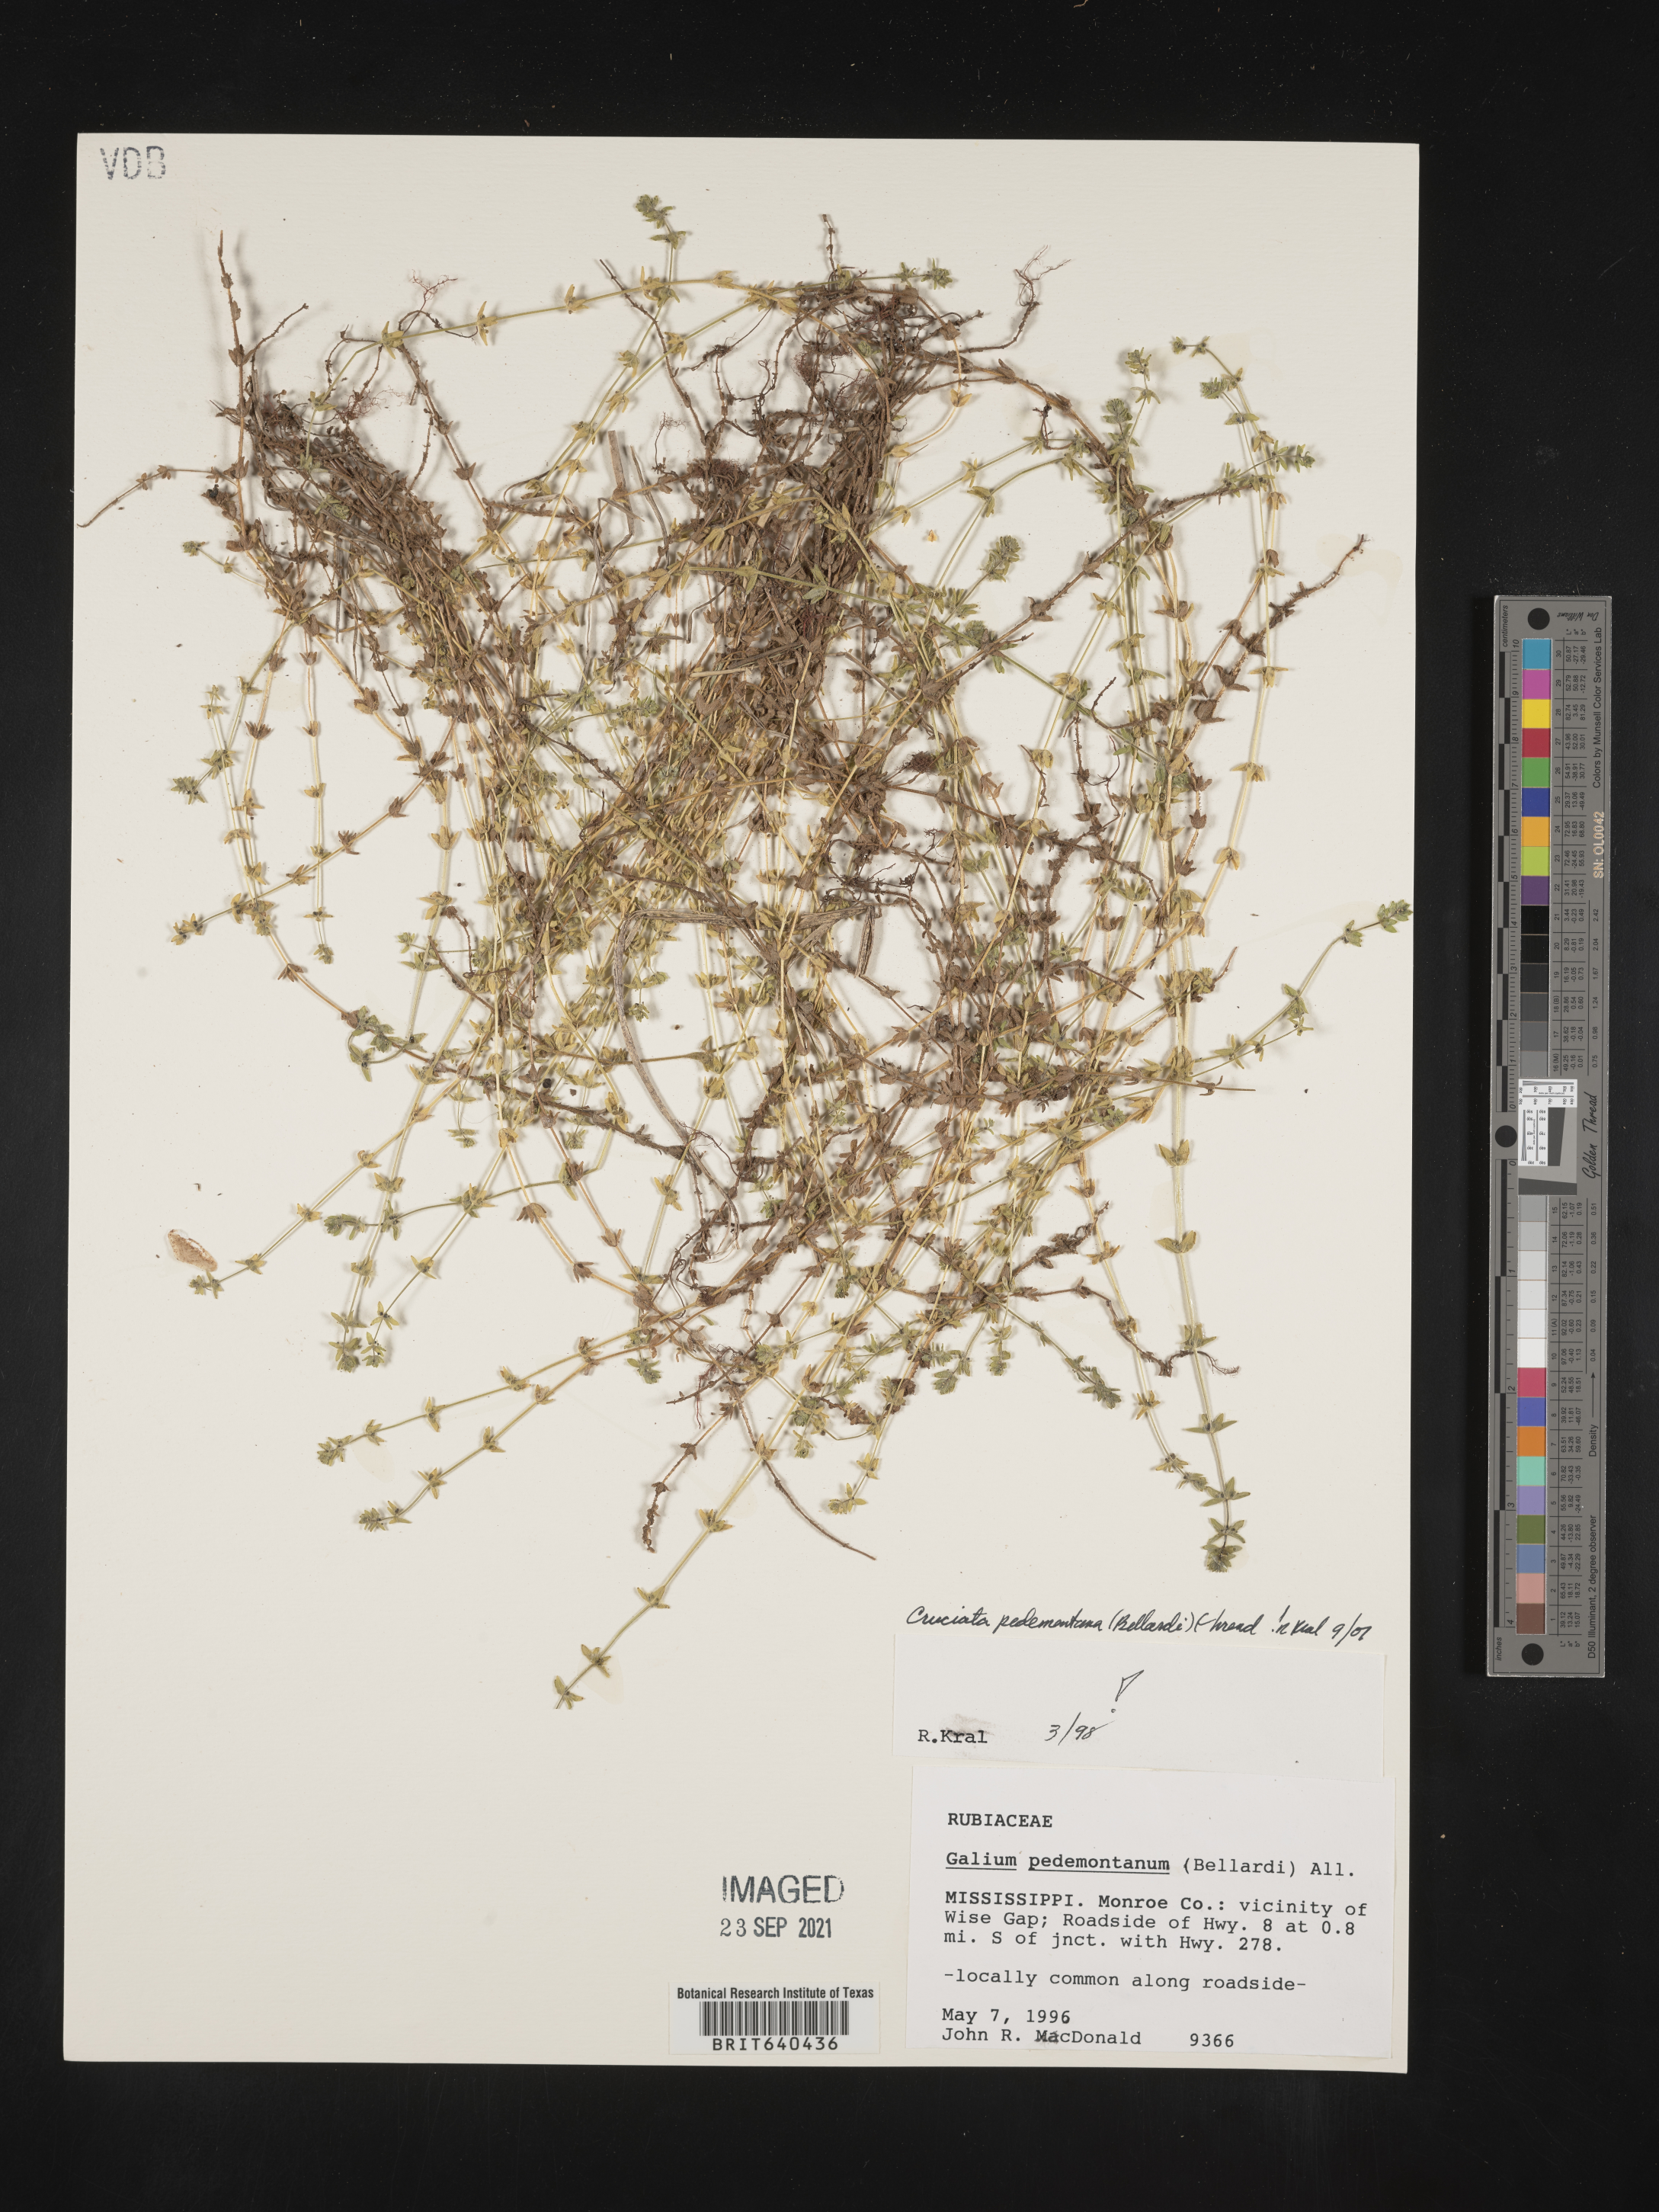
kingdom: Plantae
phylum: Tracheophyta
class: Magnoliopsida
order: Gentianales
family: Rubiaceae
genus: Cruciata
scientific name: Cruciata
